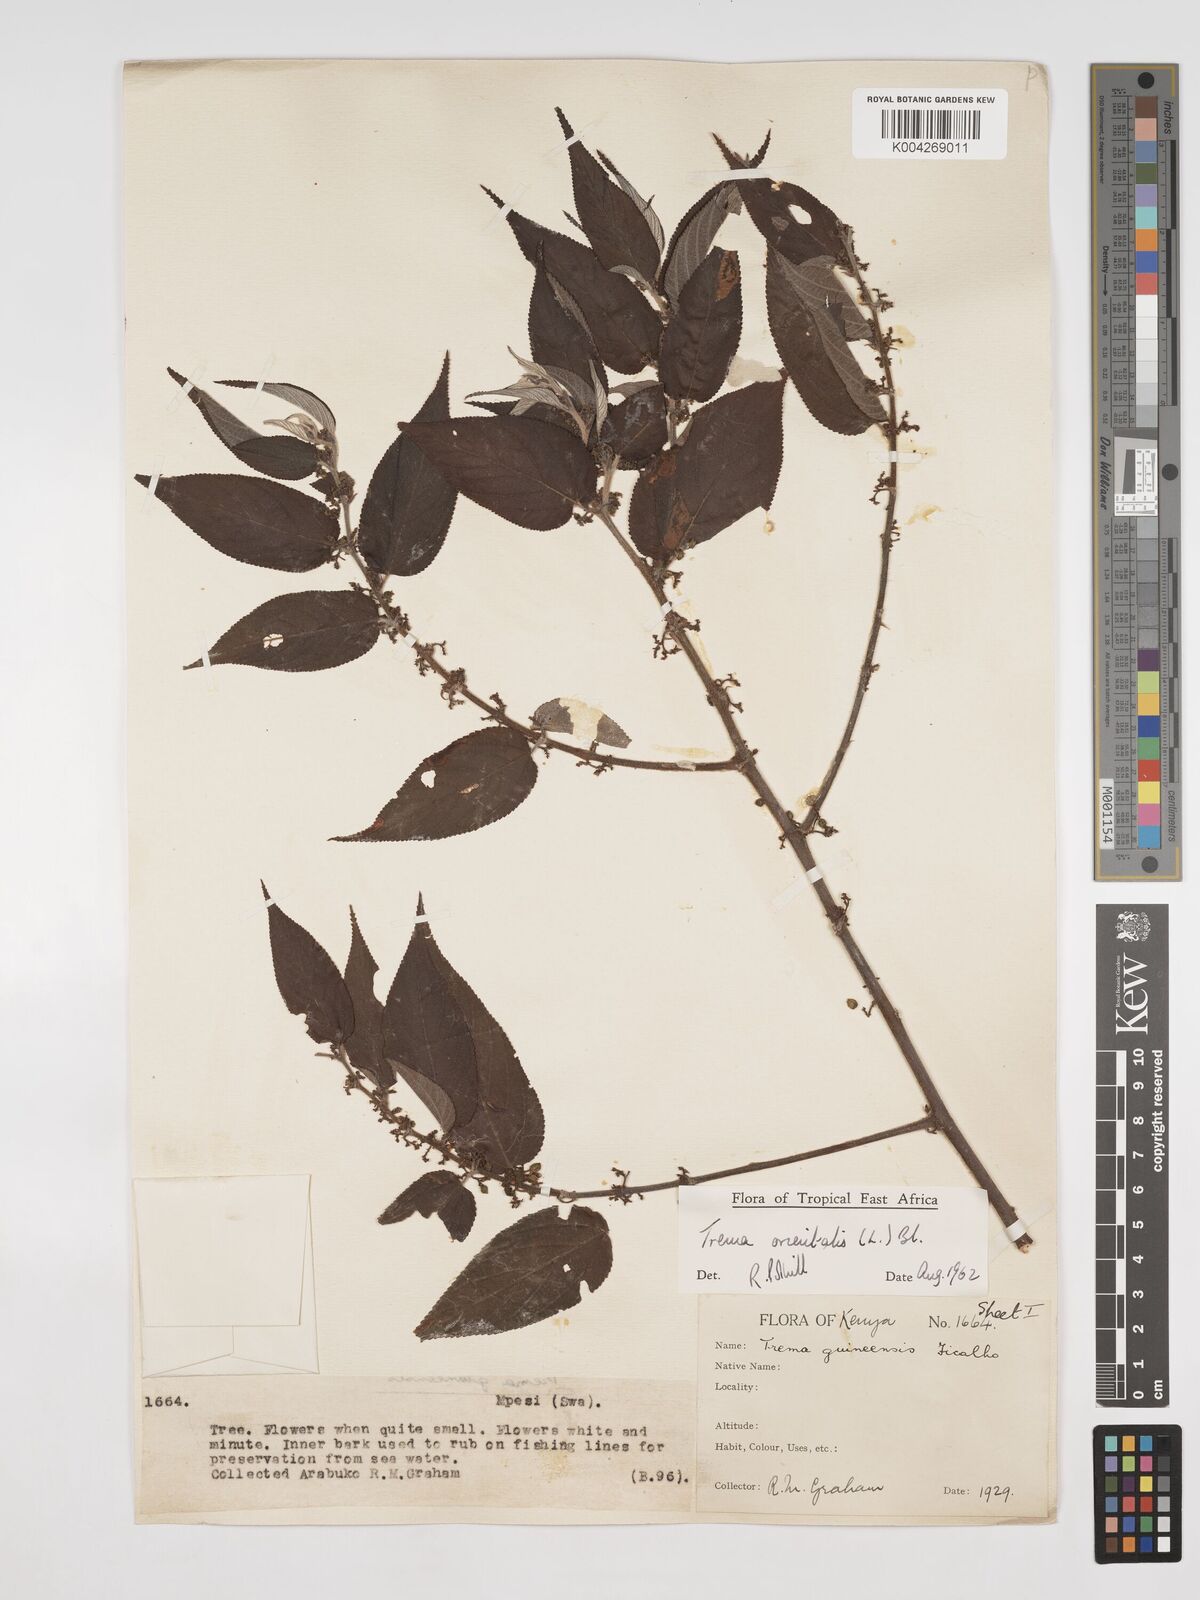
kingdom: Plantae
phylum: Tracheophyta
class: Magnoliopsida
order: Rosales
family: Cannabaceae
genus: Trema
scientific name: Trema orientale
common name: Indian charcoal tree
